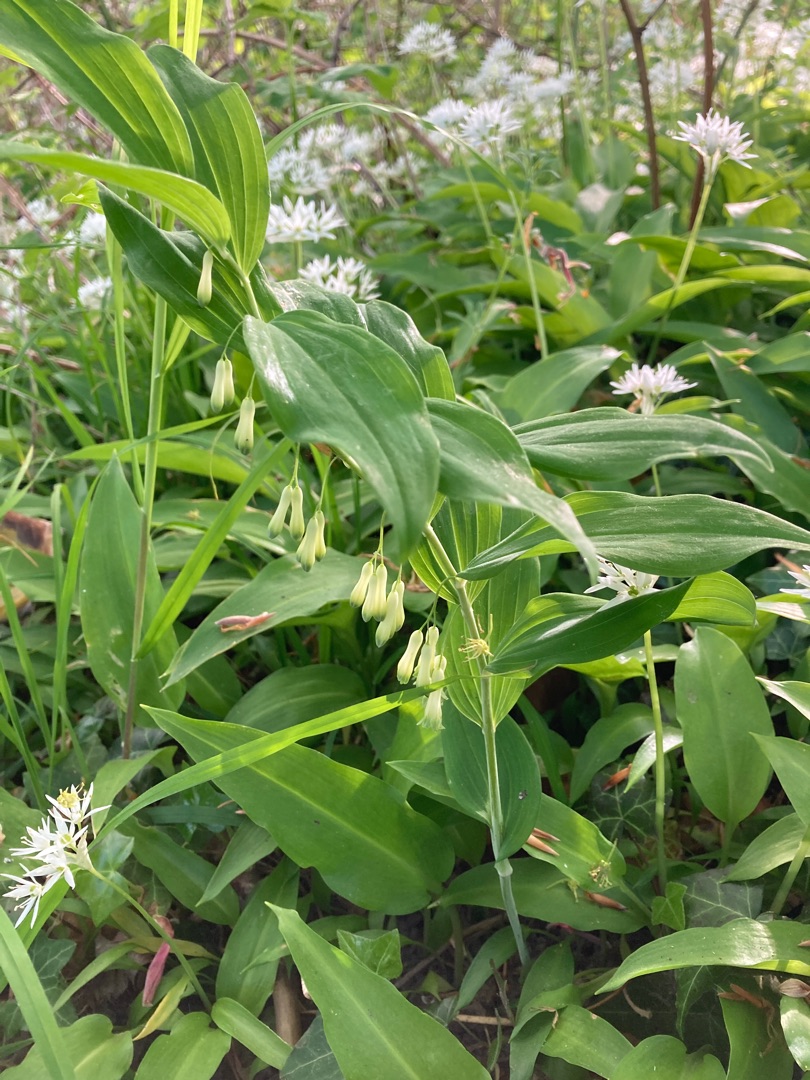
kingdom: Plantae
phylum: Tracheophyta
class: Liliopsida
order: Asparagales
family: Asparagaceae
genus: Polygonatum
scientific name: Polygonatum multiflorum
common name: Stor konval
